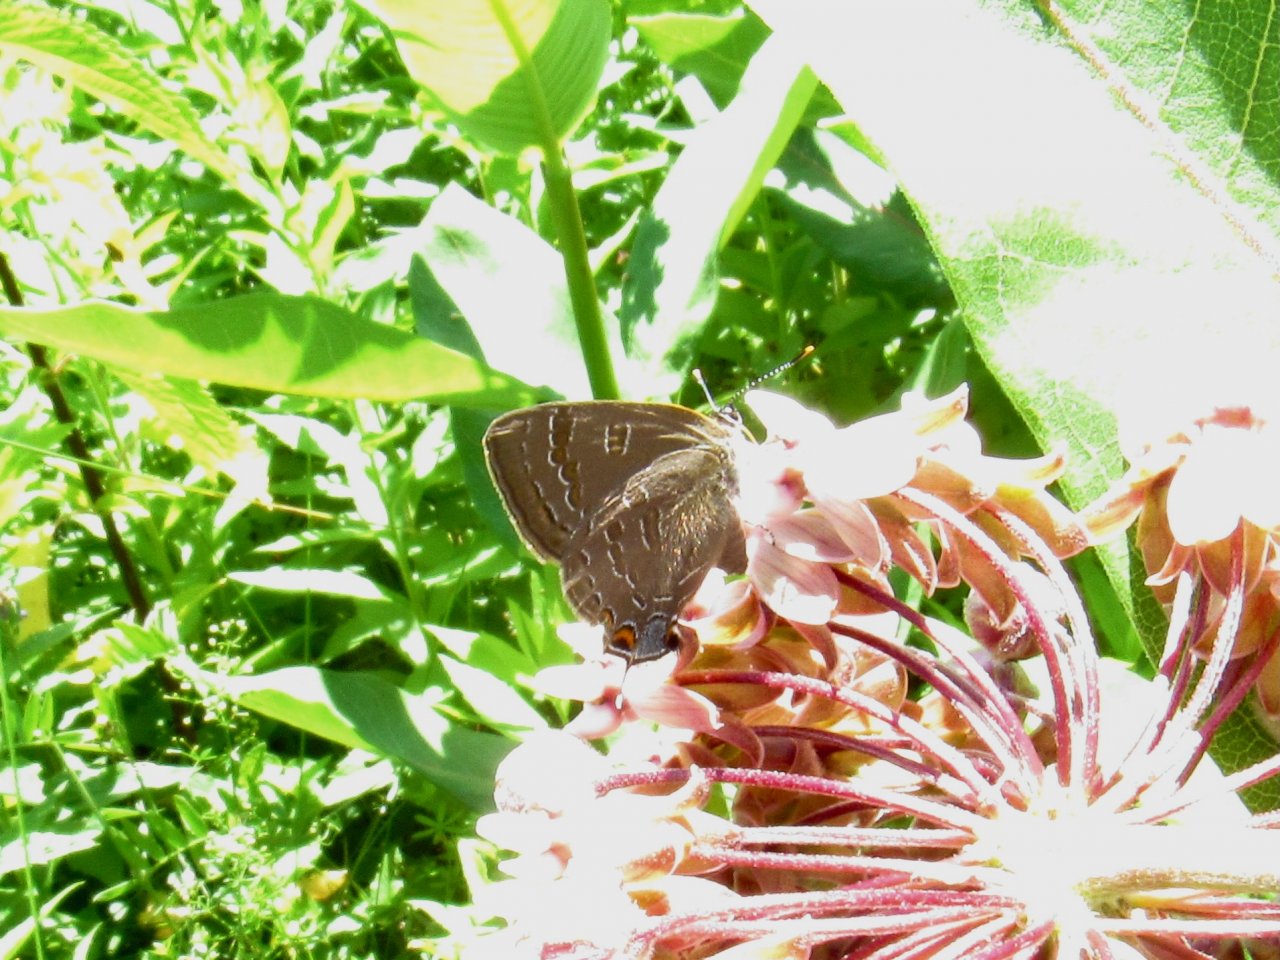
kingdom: Animalia
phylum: Arthropoda
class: Insecta
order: Lepidoptera
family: Lycaenidae
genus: Satyrium
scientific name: Satyrium calanus
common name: Banded Hairstreak
